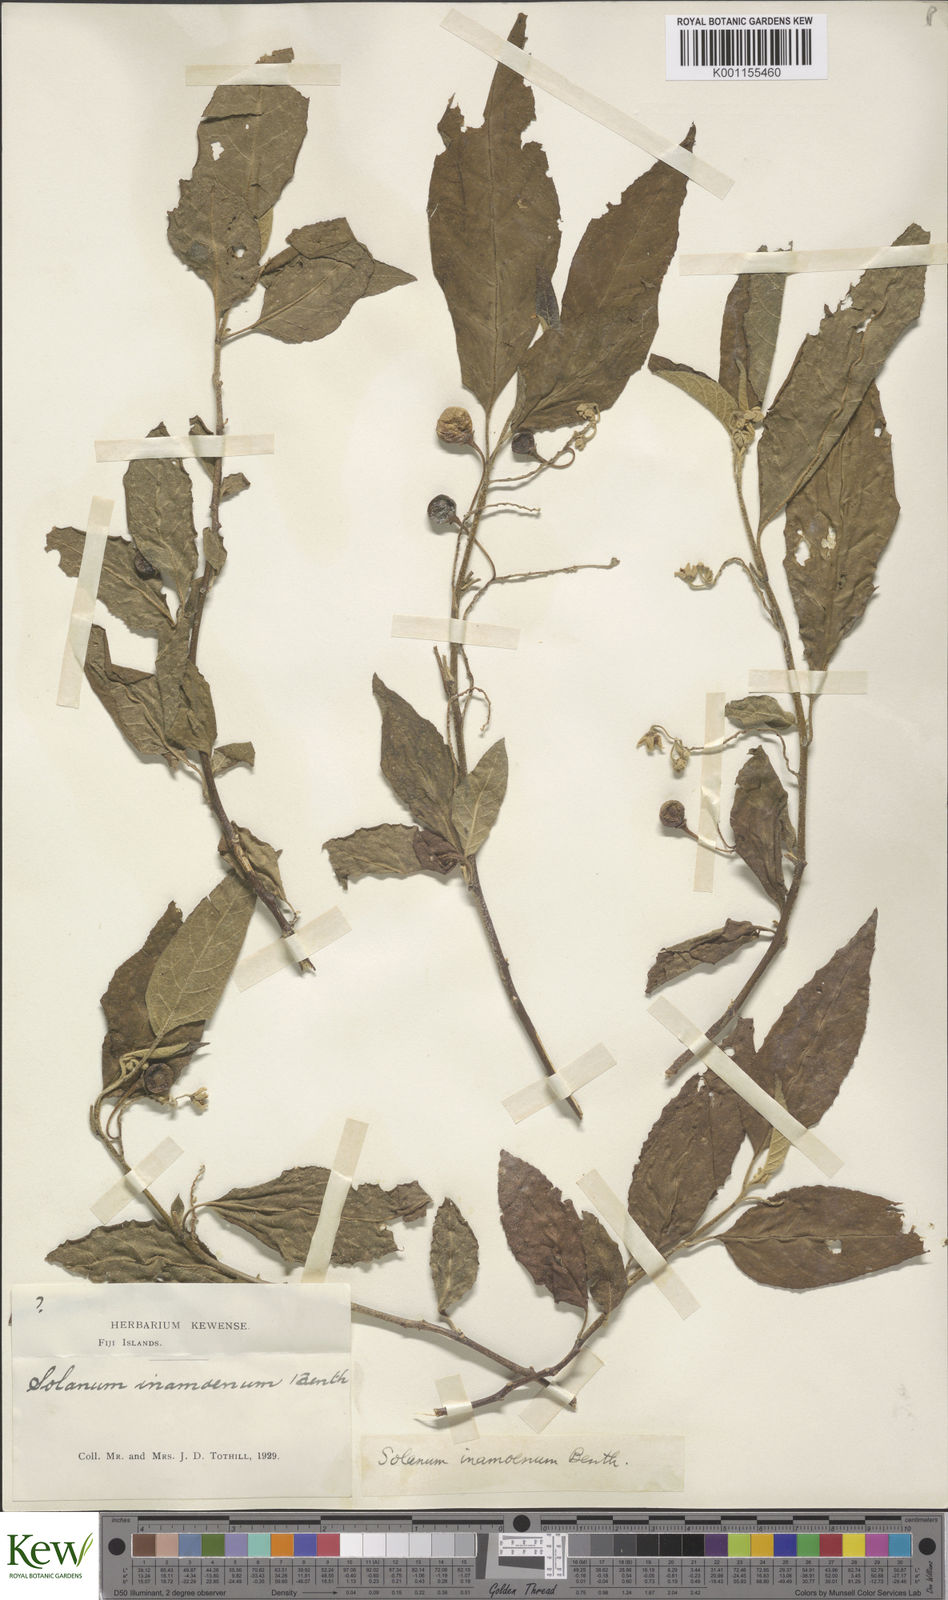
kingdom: Plantae
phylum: Tracheophyta
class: Magnoliopsida
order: Solanales
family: Solanaceae
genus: Solanum
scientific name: Solanum inamoenum
